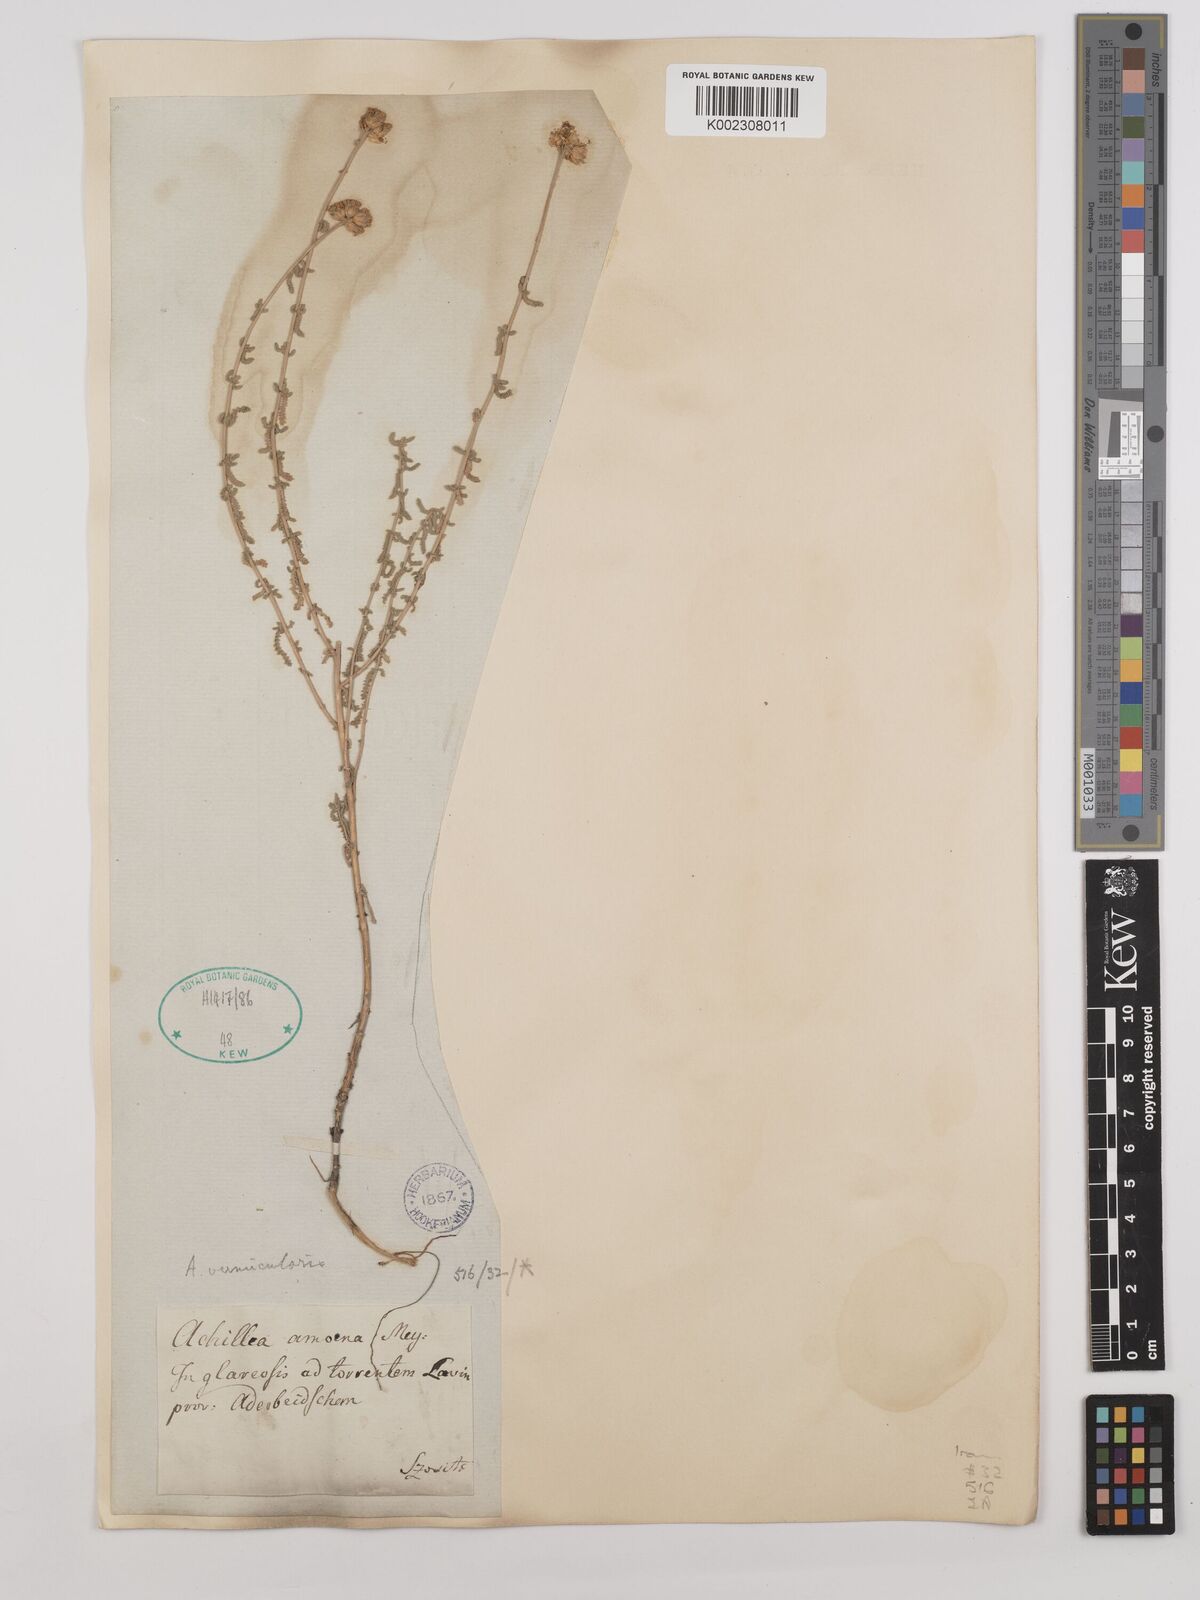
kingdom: Plantae
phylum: Tracheophyta
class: Magnoliopsida
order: Asterales
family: Asteraceae
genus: Achillea
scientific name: Achillea vermicularis
